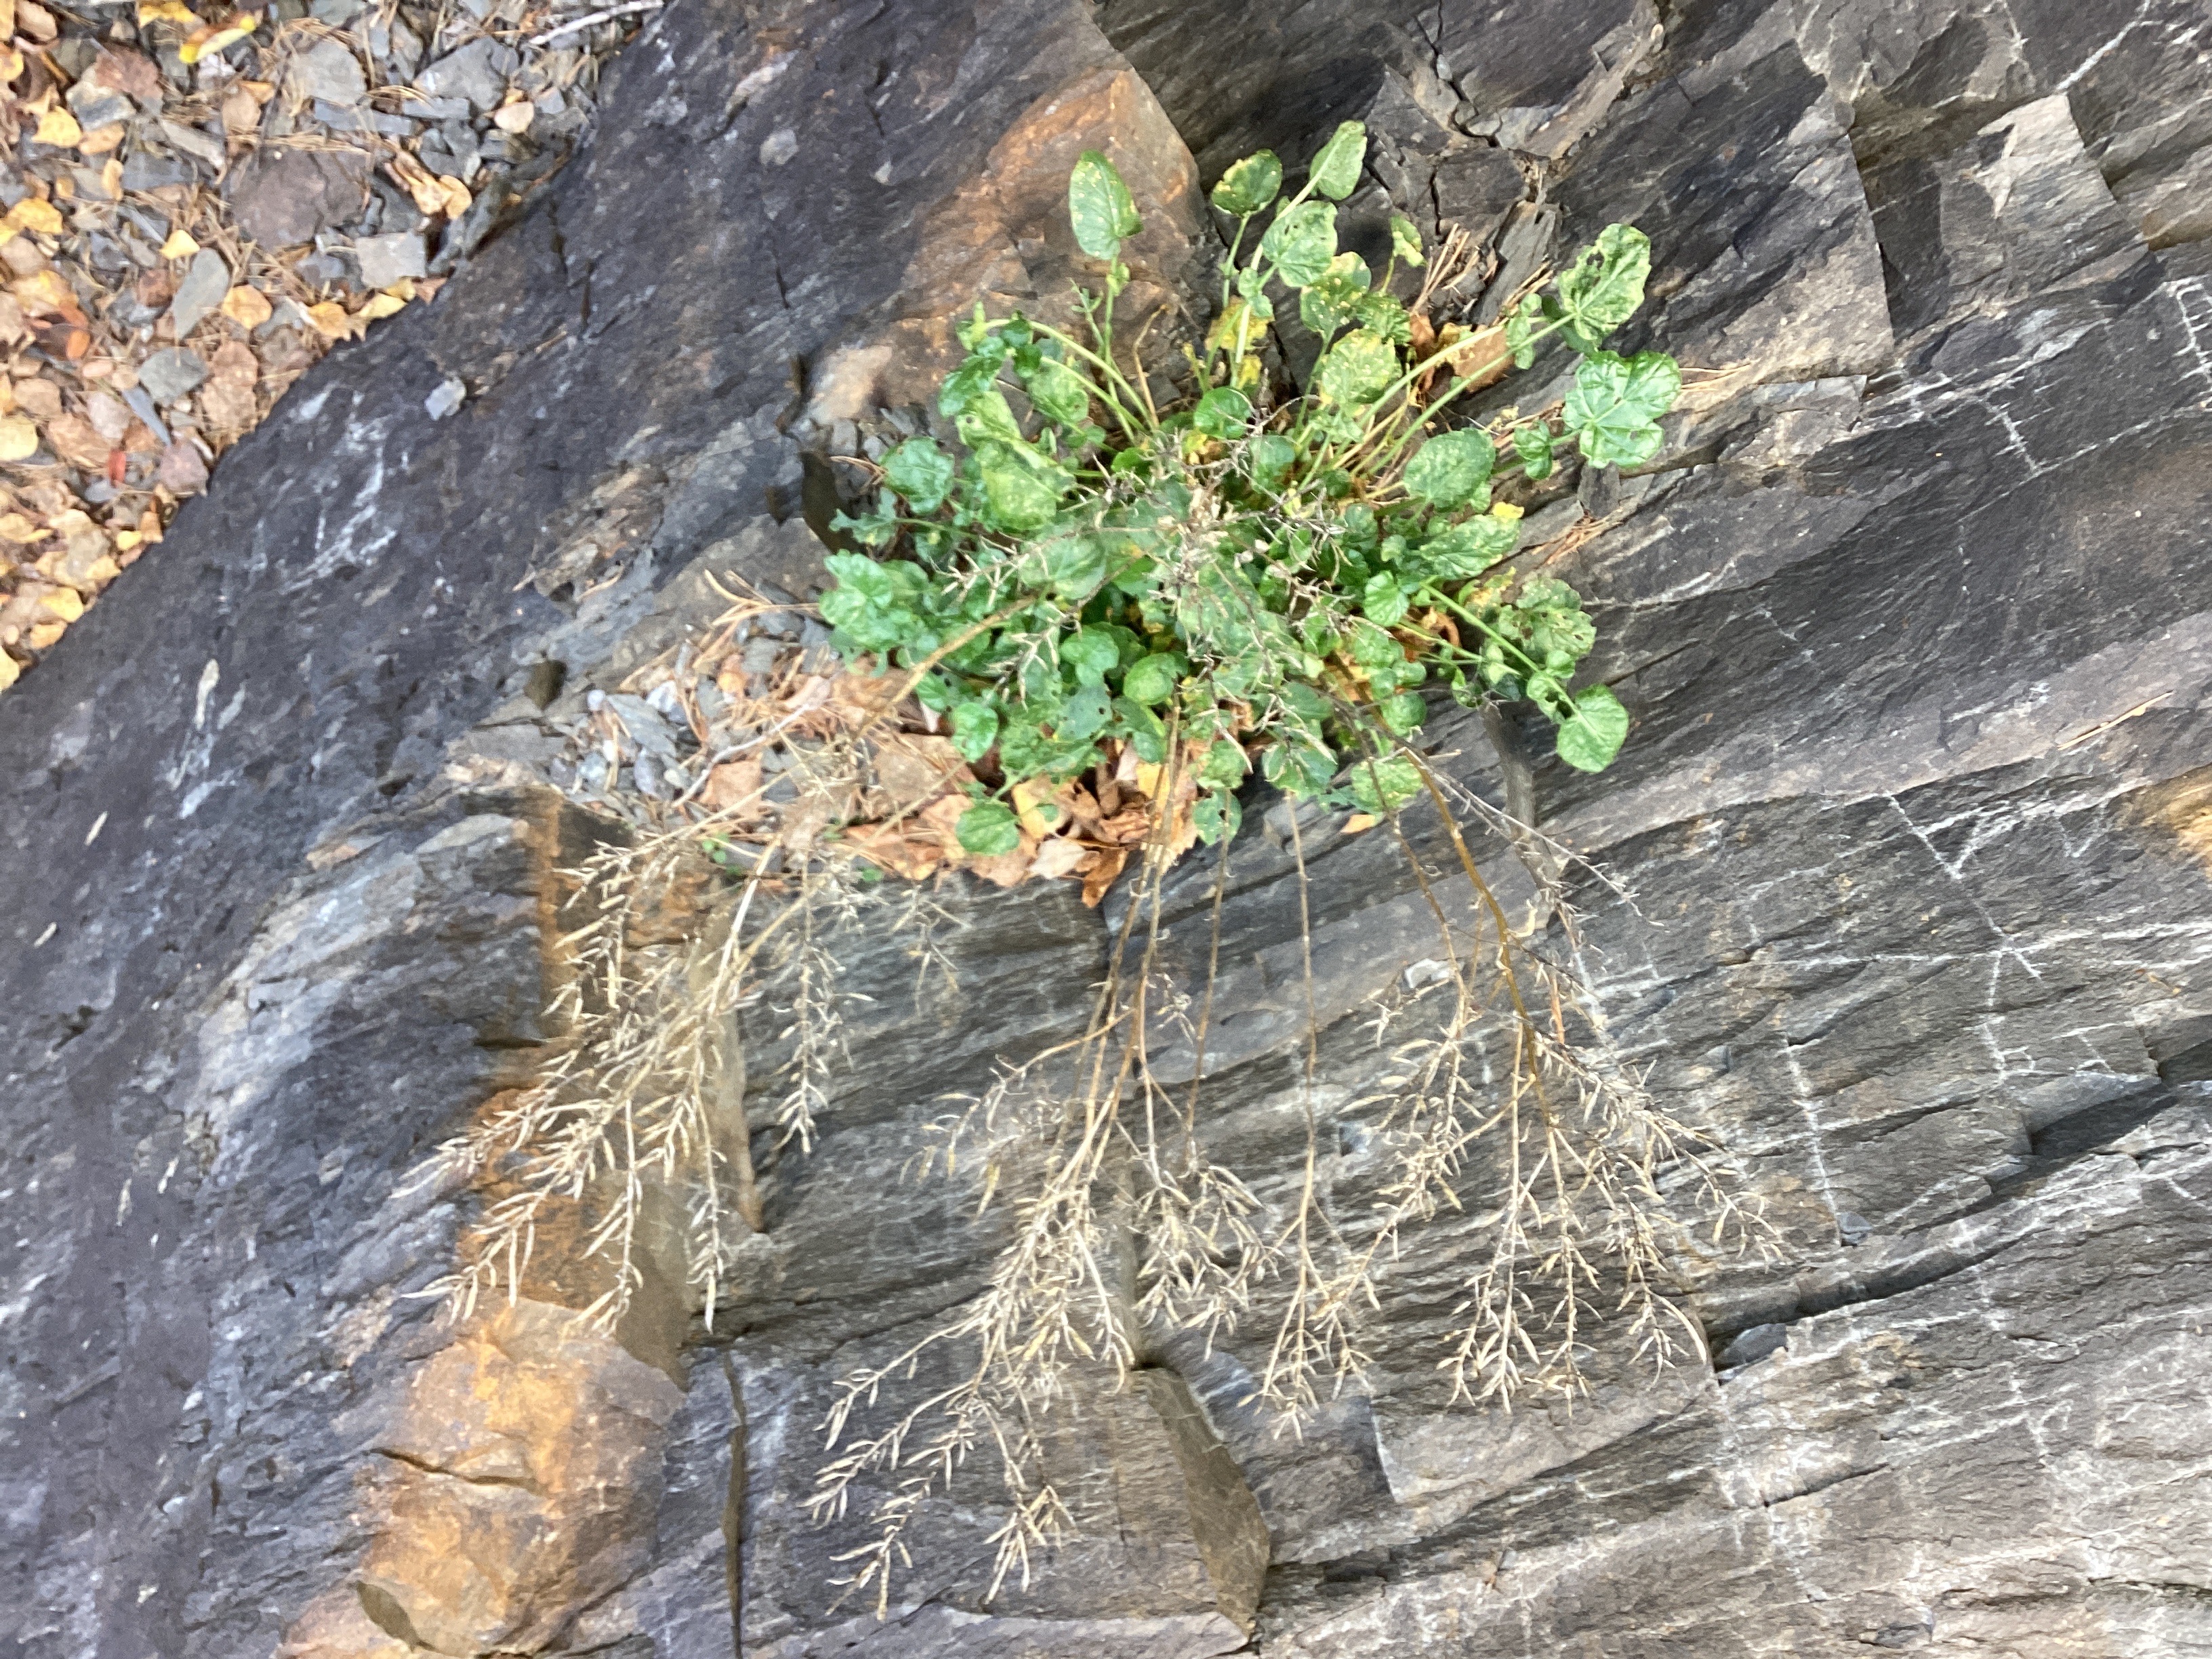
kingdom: Plantae
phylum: Tracheophyta
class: Magnoliopsida
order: Brassicales
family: Brassicaceae
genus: Barbarea
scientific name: Barbarea vulgaris
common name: vinterkarse
